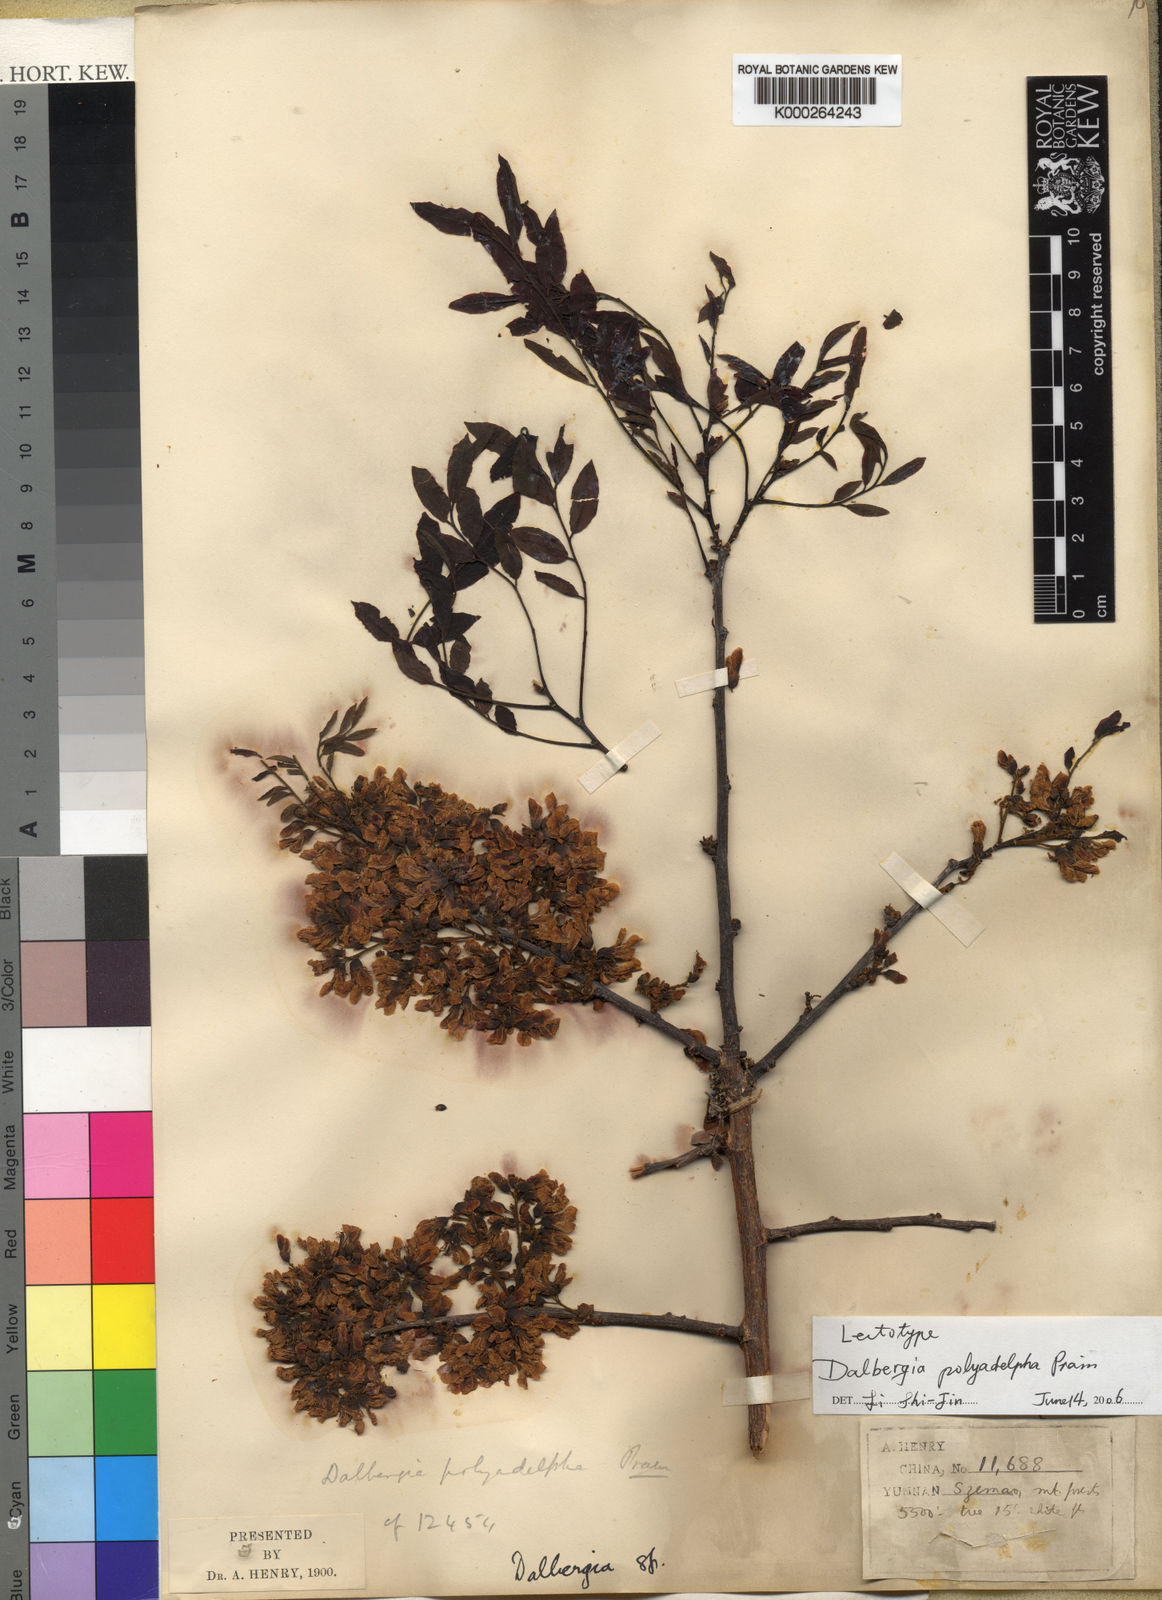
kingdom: Plantae
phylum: Tracheophyta
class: Magnoliopsida
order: Fabales
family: Fabaceae
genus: Dalbergia
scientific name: Dalbergia polyadelpha
